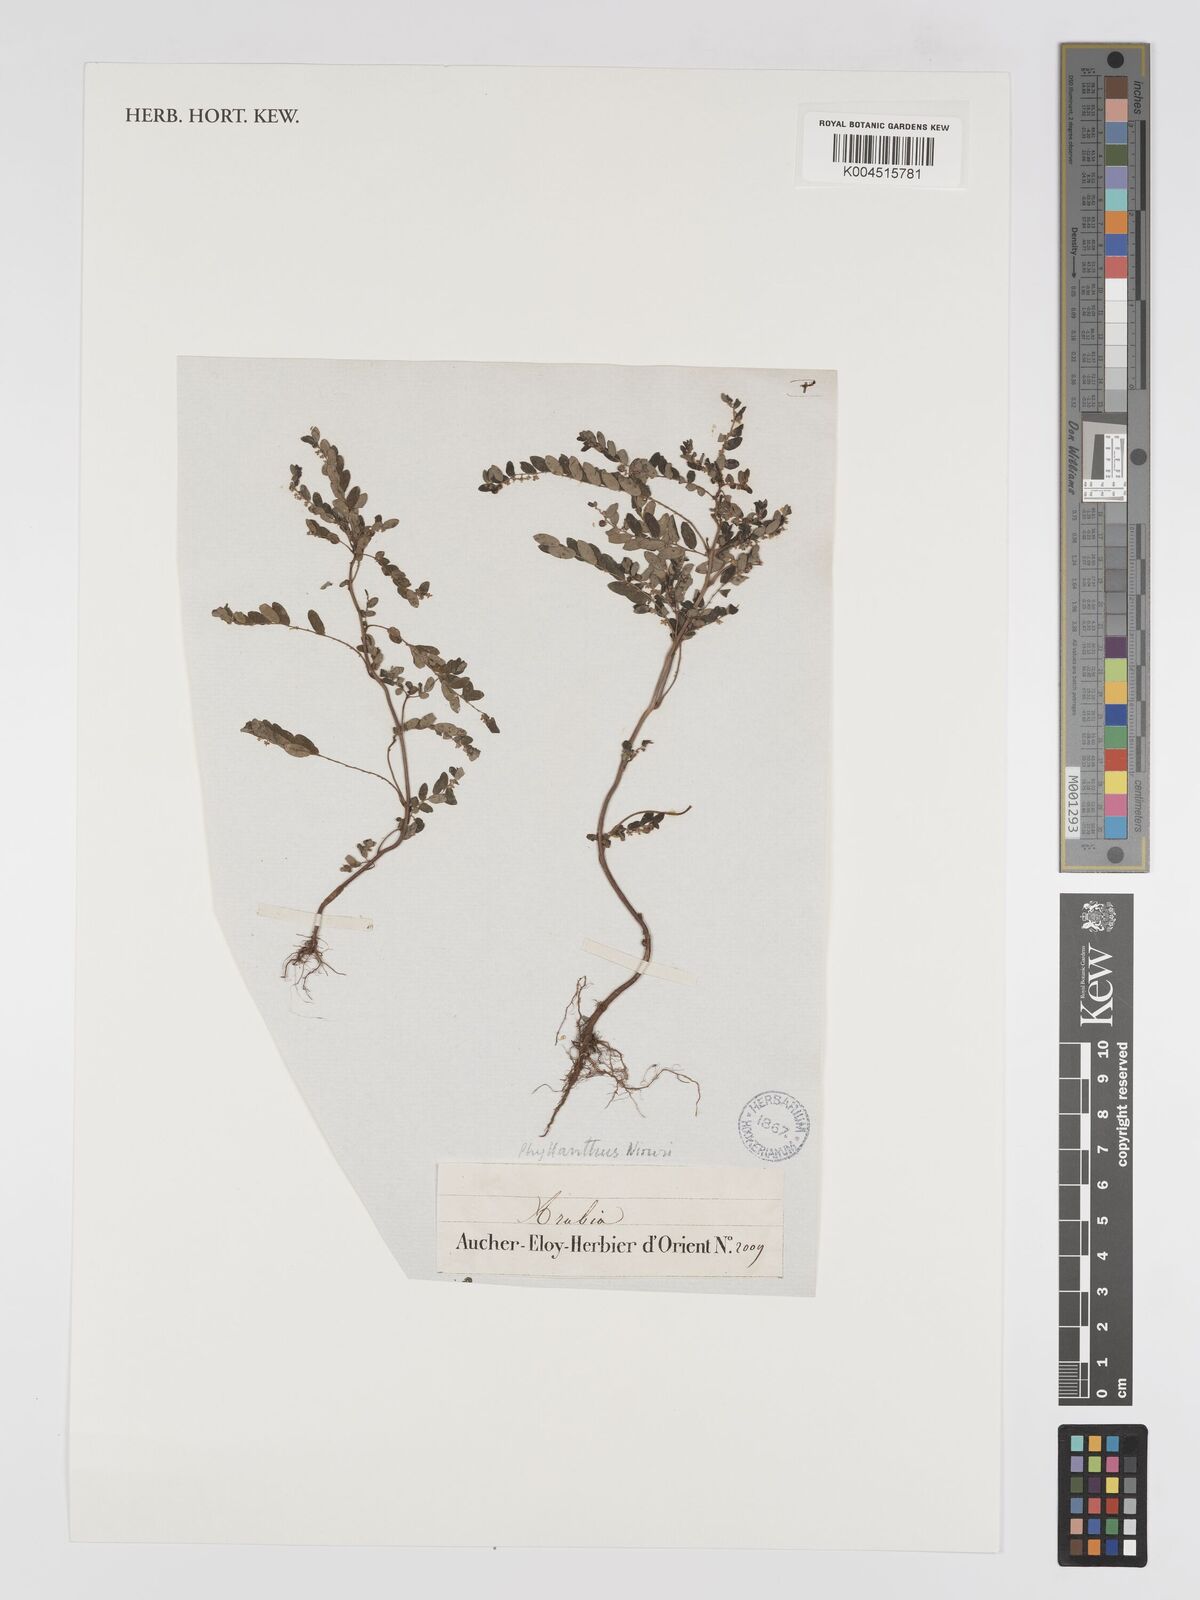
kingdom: Plantae
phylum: Tracheophyta
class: Magnoliopsida
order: Malpighiales
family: Phyllanthaceae
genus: Phyllanthus
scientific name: Phyllanthus niruri
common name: Niruri
